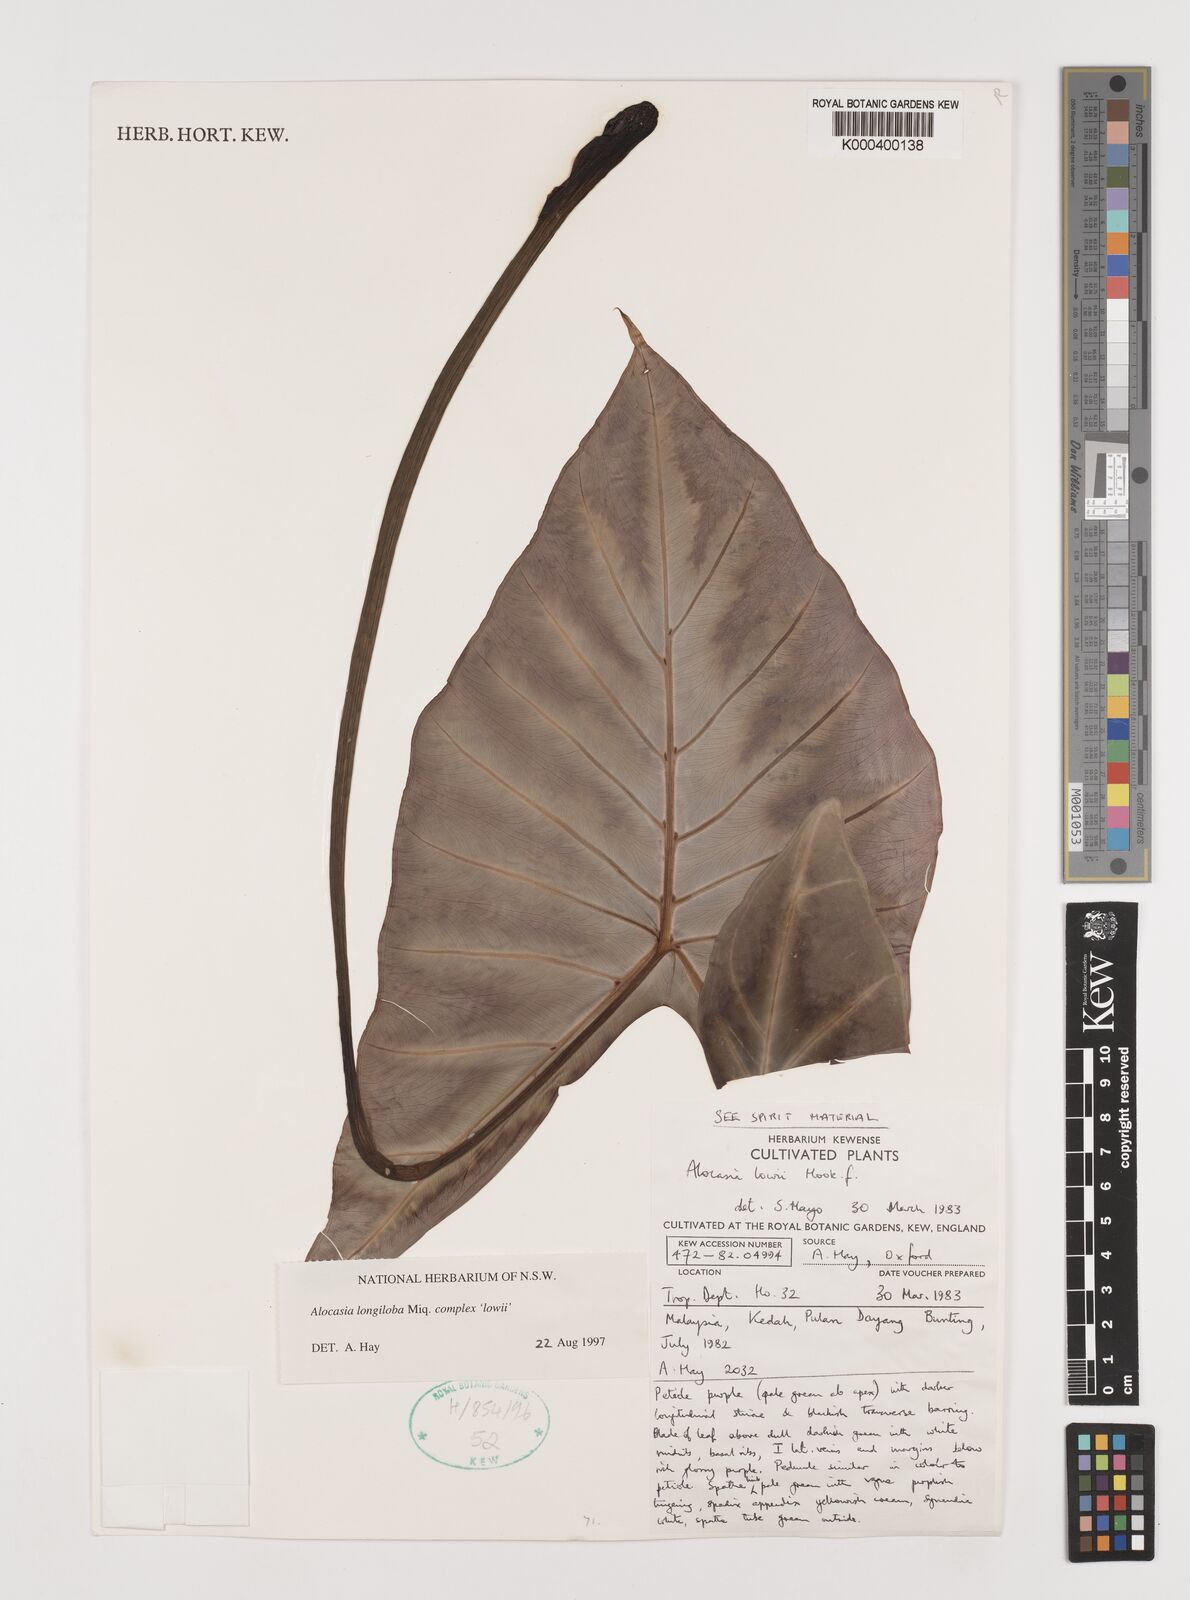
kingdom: Plantae
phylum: Tracheophyta
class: Liliopsida
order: Alismatales
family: Araceae
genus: Alocasia
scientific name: Alocasia longiloba
